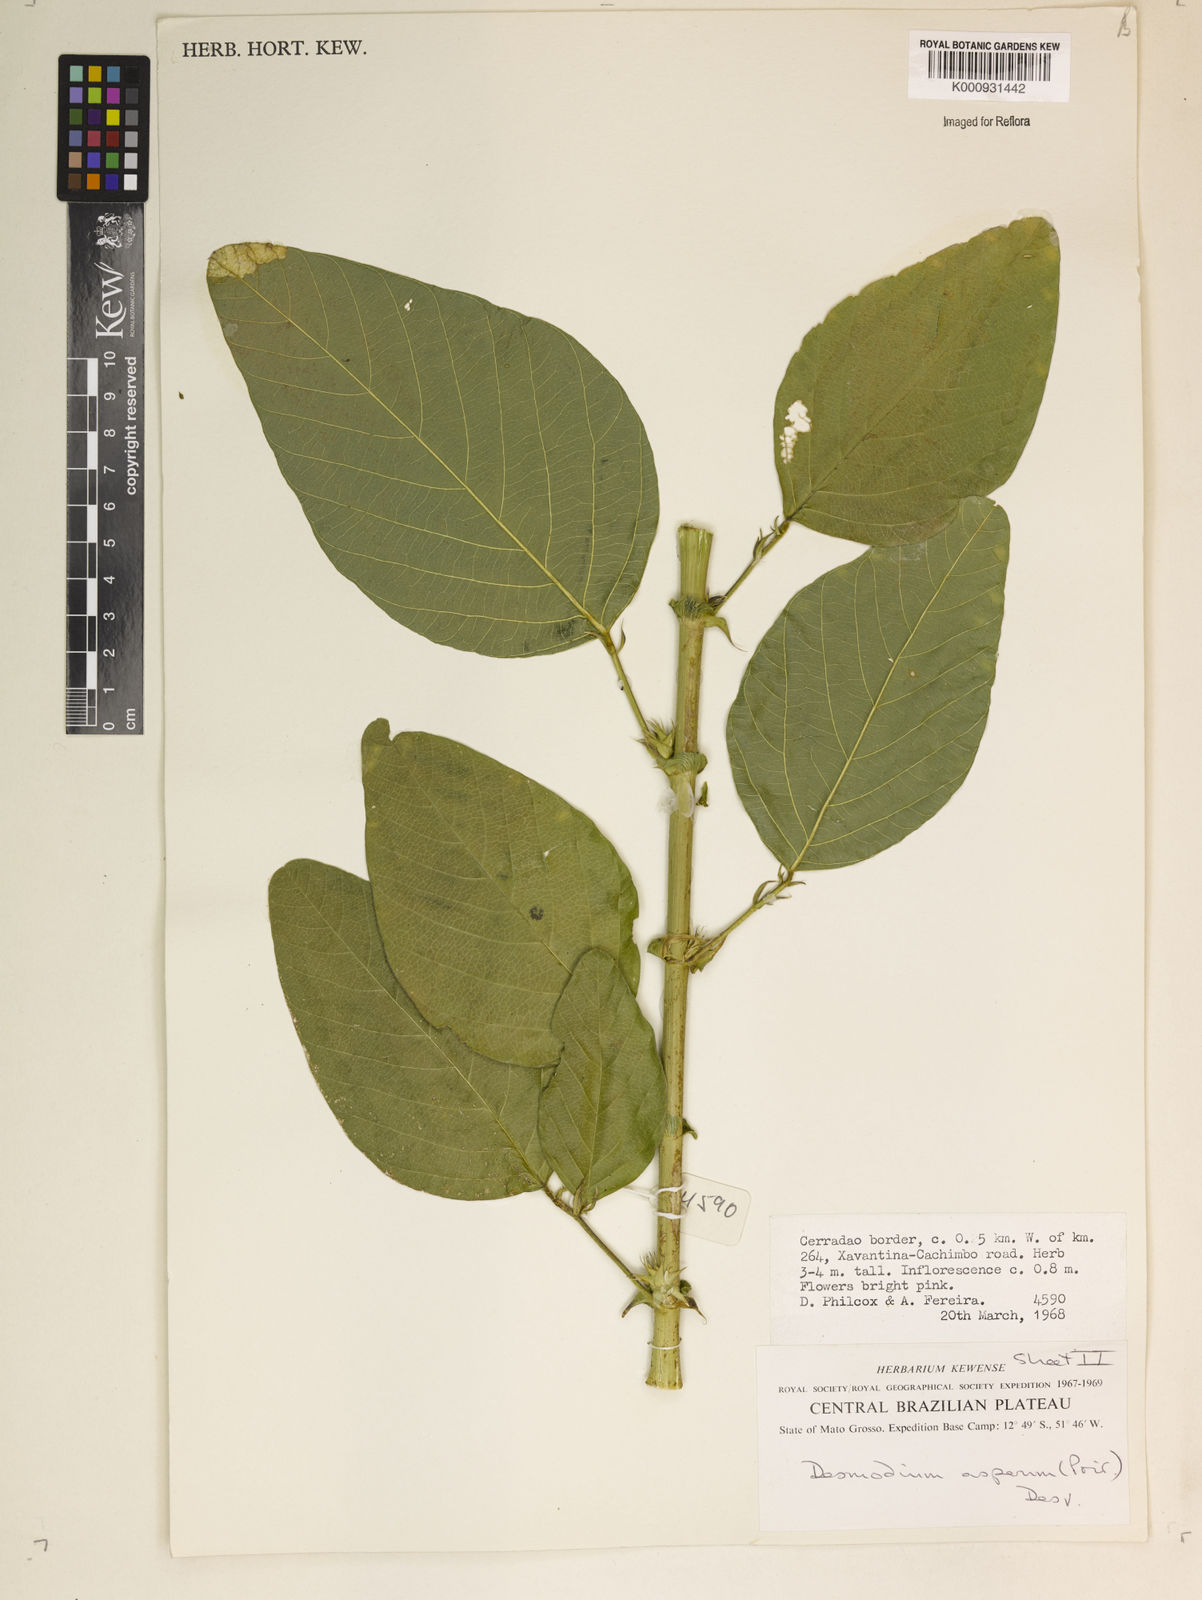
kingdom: Plantae
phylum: Tracheophyta
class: Magnoliopsida
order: Fabales
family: Fabaceae
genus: Desmodium
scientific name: Desmodium distortum
